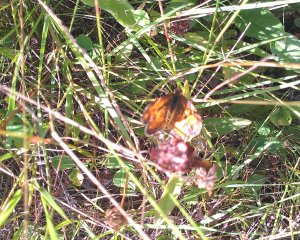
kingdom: Animalia
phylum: Arthropoda
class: Insecta
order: Lepidoptera
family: Nymphalidae
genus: Phyciodes
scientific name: Phyciodes tharos
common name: Northern Crescent
